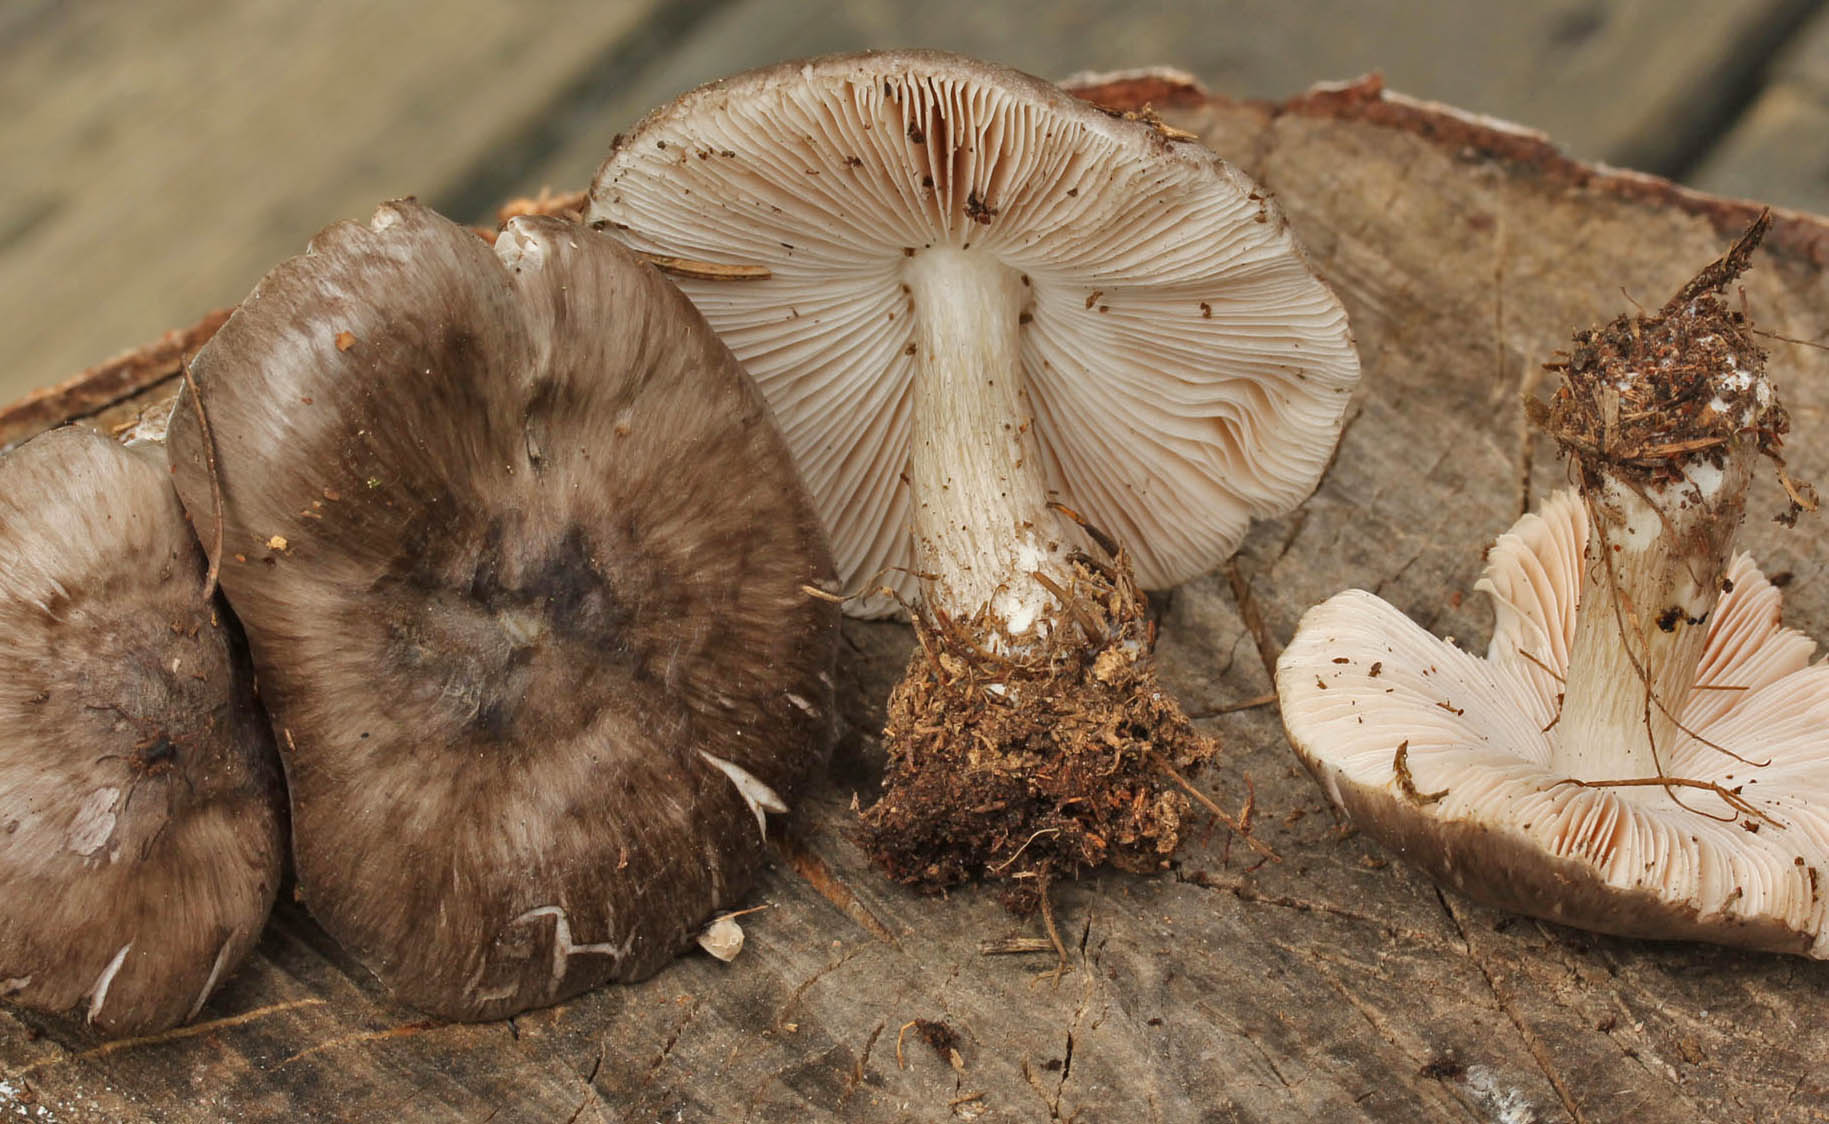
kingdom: Fungi
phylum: Basidiomycota
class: Agaricomycetes
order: Agaricales
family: Pluteaceae
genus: Pluteus
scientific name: Pluteus cervinus
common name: sodfarvet skærmhat
